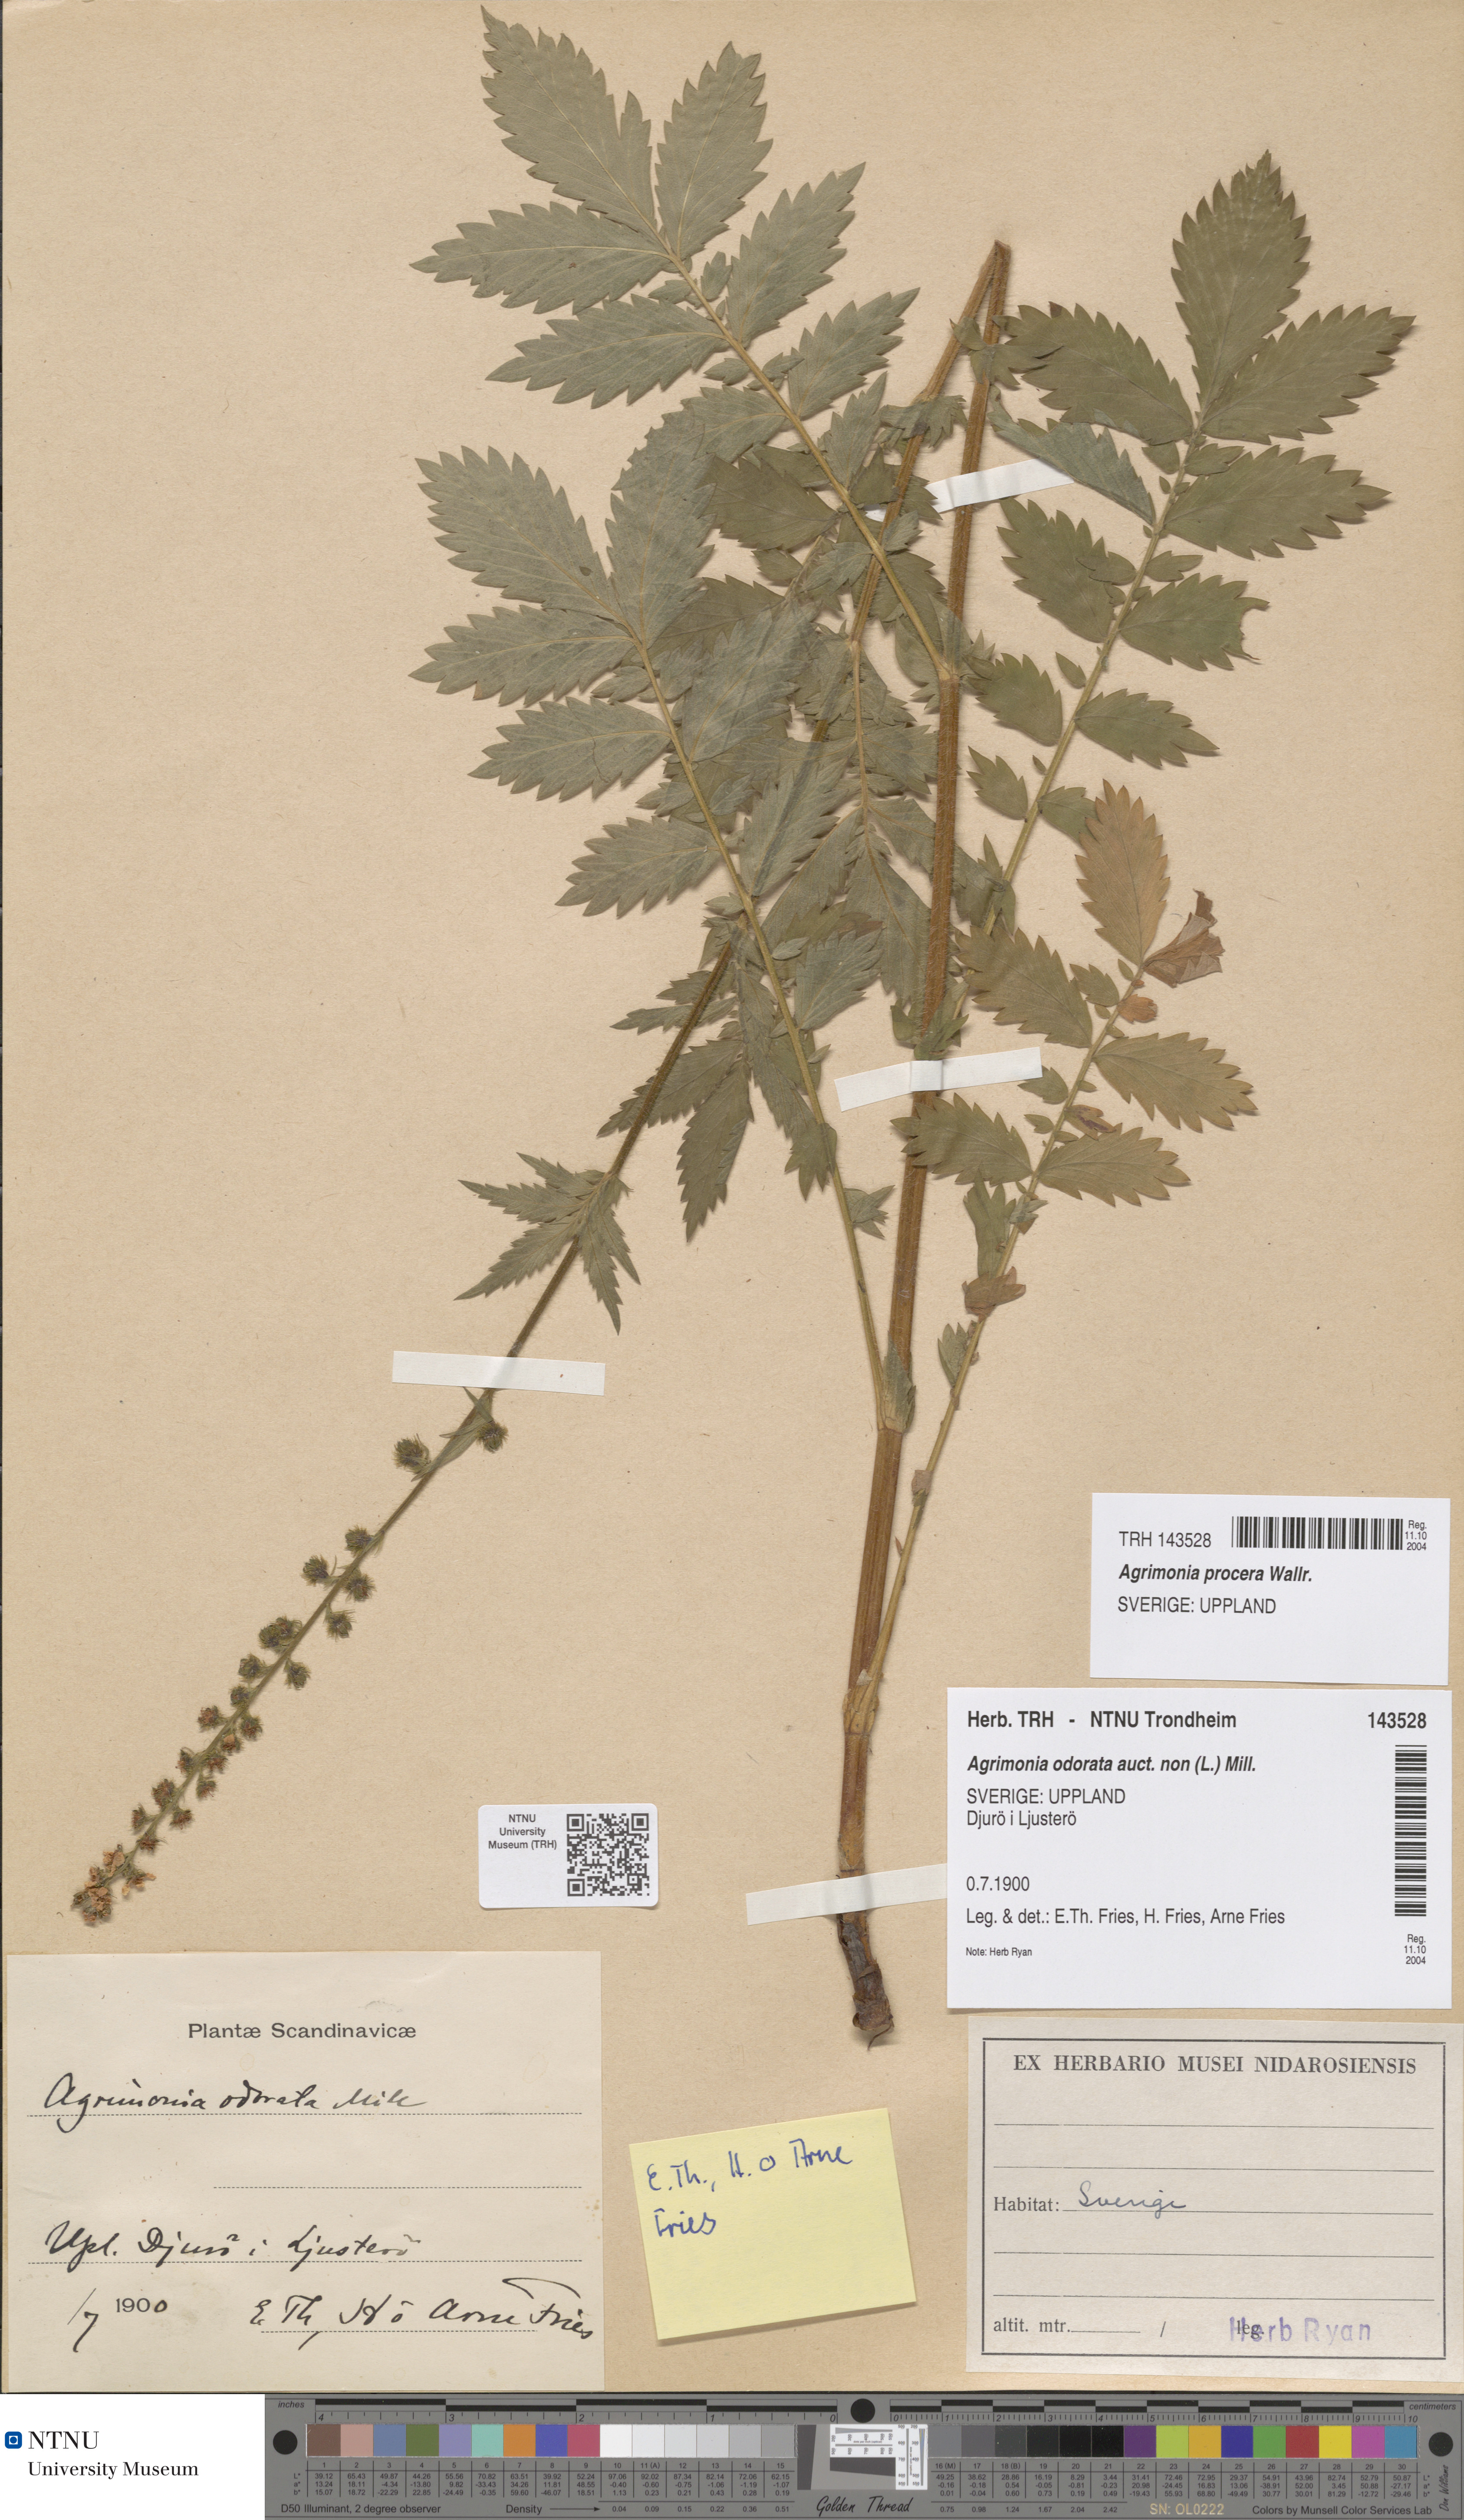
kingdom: Plantae
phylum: Tracheophyta
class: Magnoliopsida
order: Rosales
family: Rosaceae
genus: Agrimonia
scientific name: Agrimonia procera
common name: Fragrant agrimony
